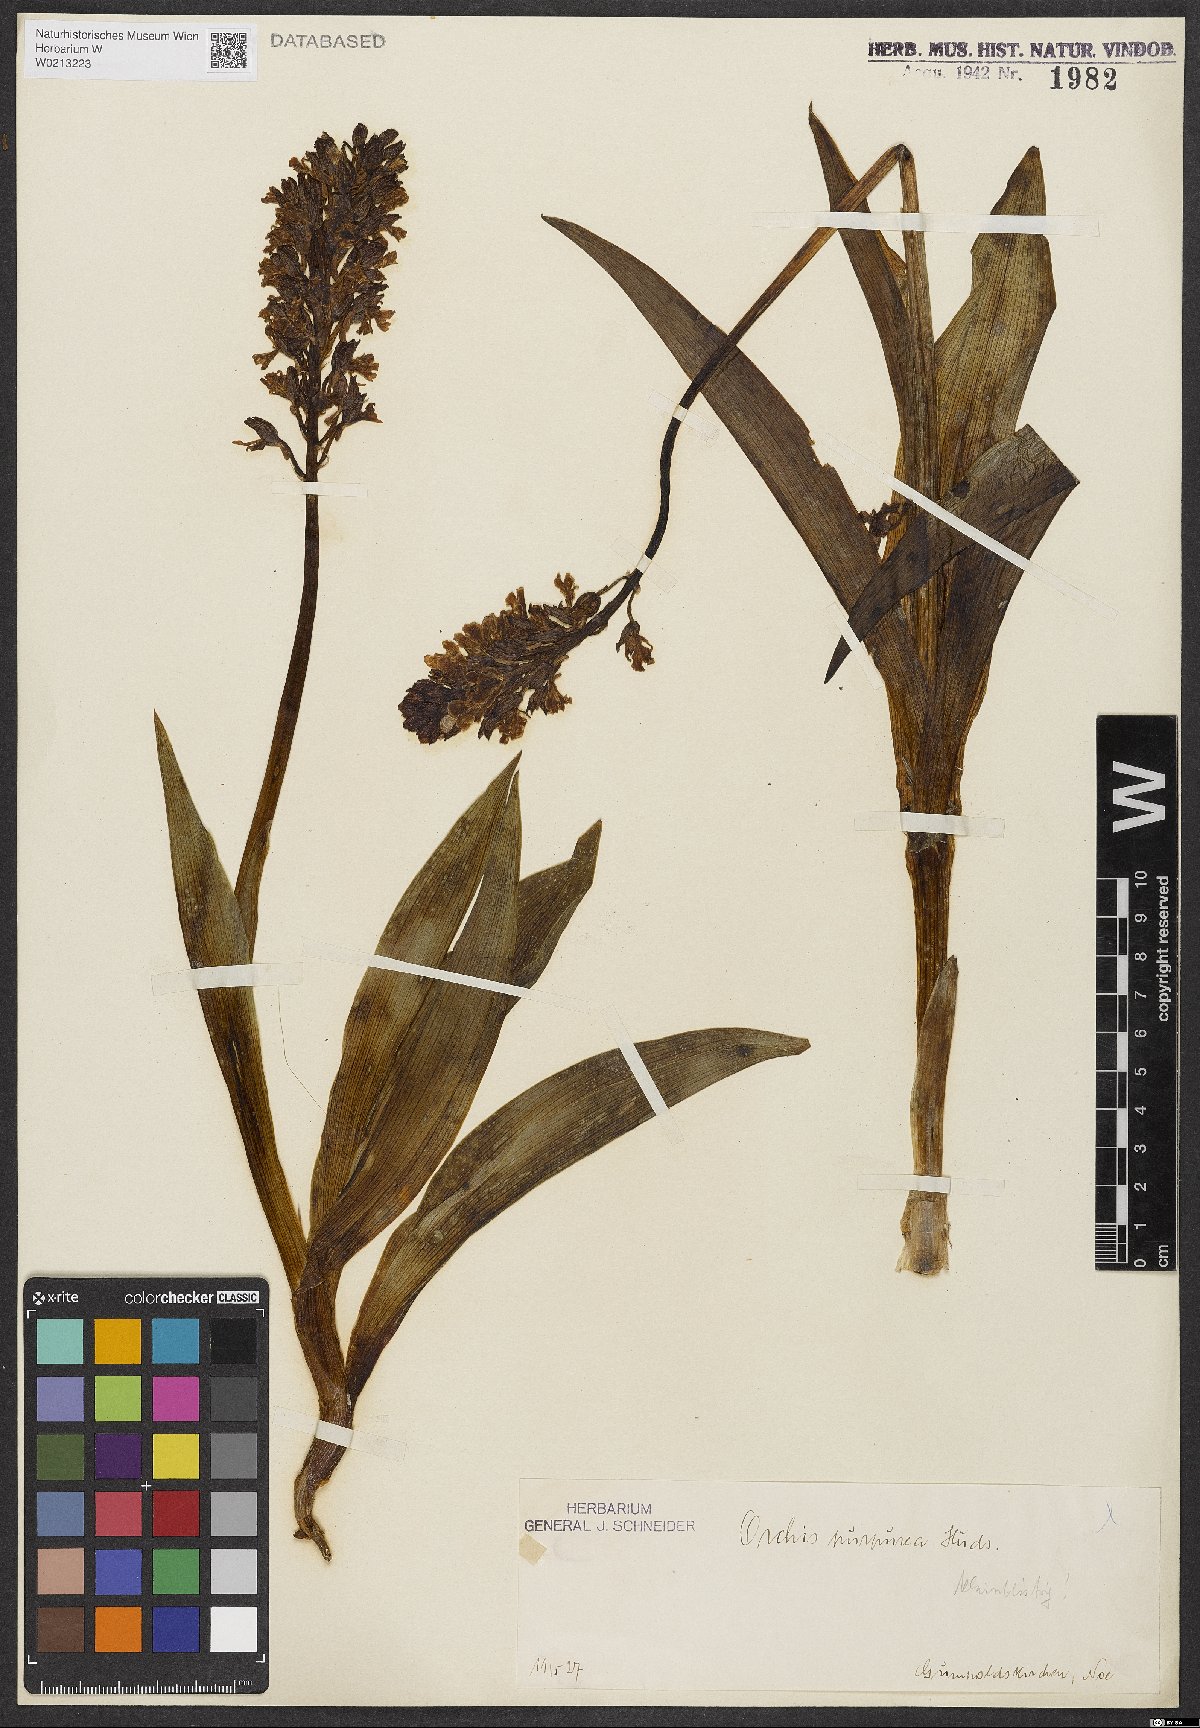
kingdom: Plantae
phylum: Tracheophyta
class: Liliopsida
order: Asparagales
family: Orchidaceae
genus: Orchis
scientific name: Orchis purpurea
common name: Lady orchid
